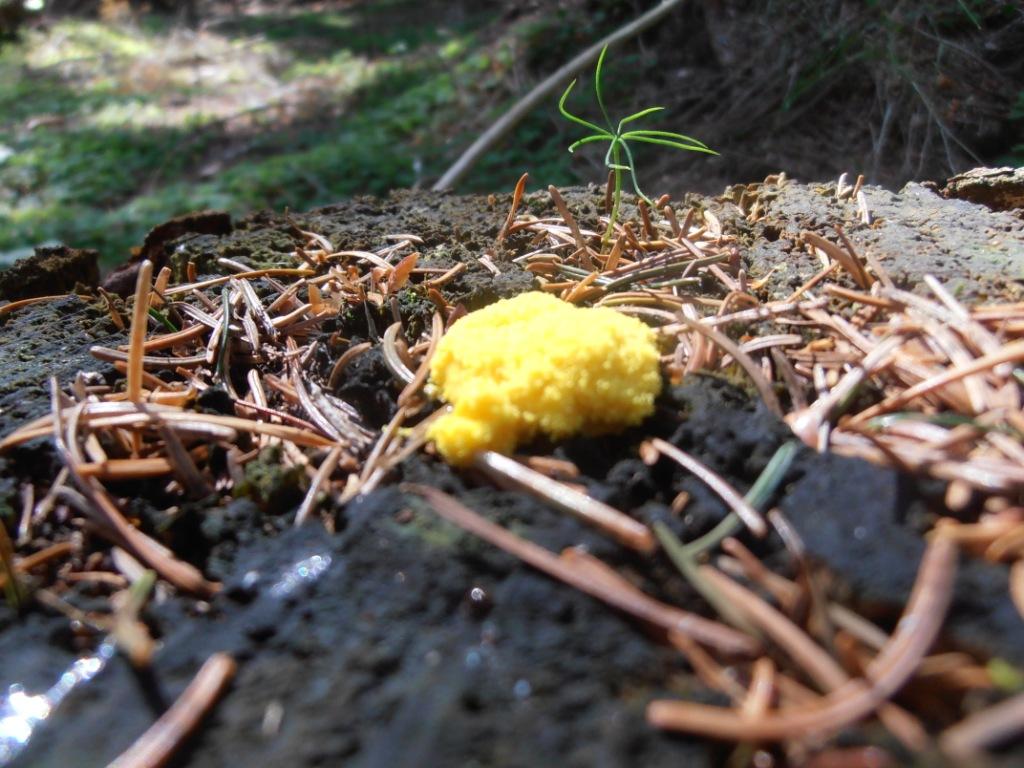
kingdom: Protozoa
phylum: Mycetozoa
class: Myxomycetes
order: Physarales
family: Physaraceae
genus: Fuligo
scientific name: Fuligo septica
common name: gul troldsmør
